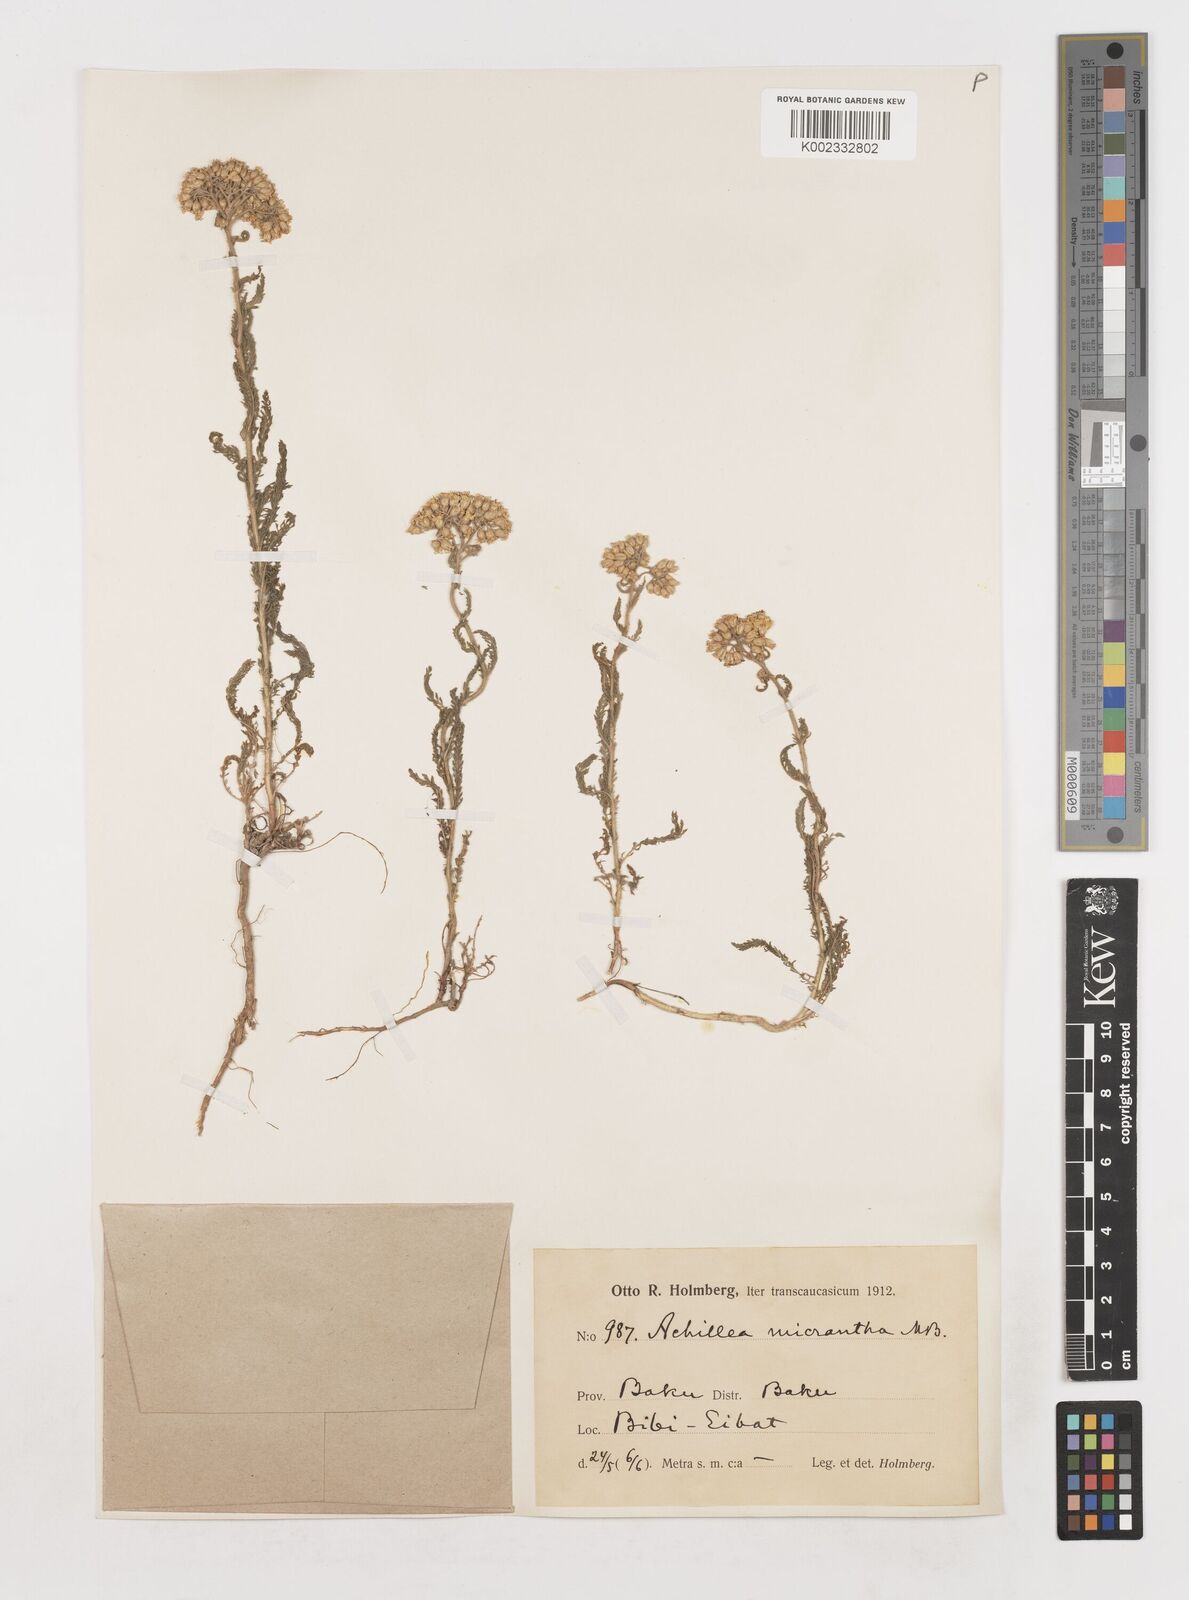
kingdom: Plantae
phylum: Tracheophyta
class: Magnoliopsida
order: Asterales
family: Asteraceae
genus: Achillea
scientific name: Achillea arabica
